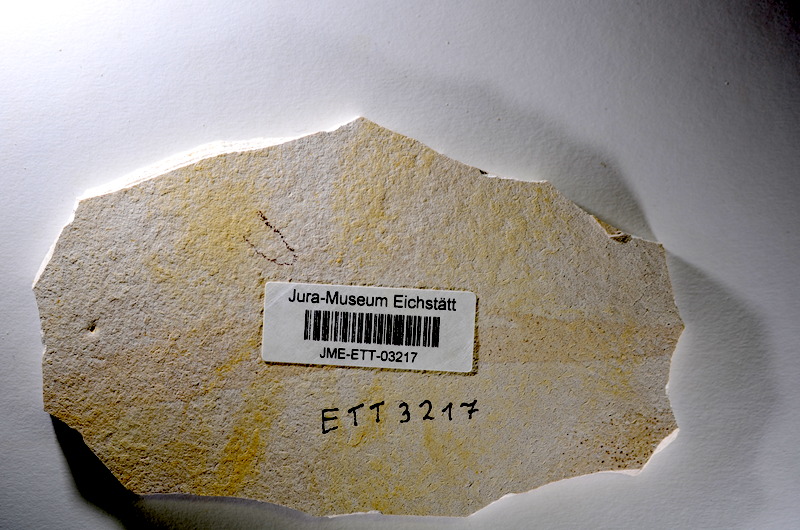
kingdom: Animalia
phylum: Chordata
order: Salmoniformes
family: Orthogonikleithridae
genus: Orthogonikleithrus
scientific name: Orthogonikleithrus hoelli
